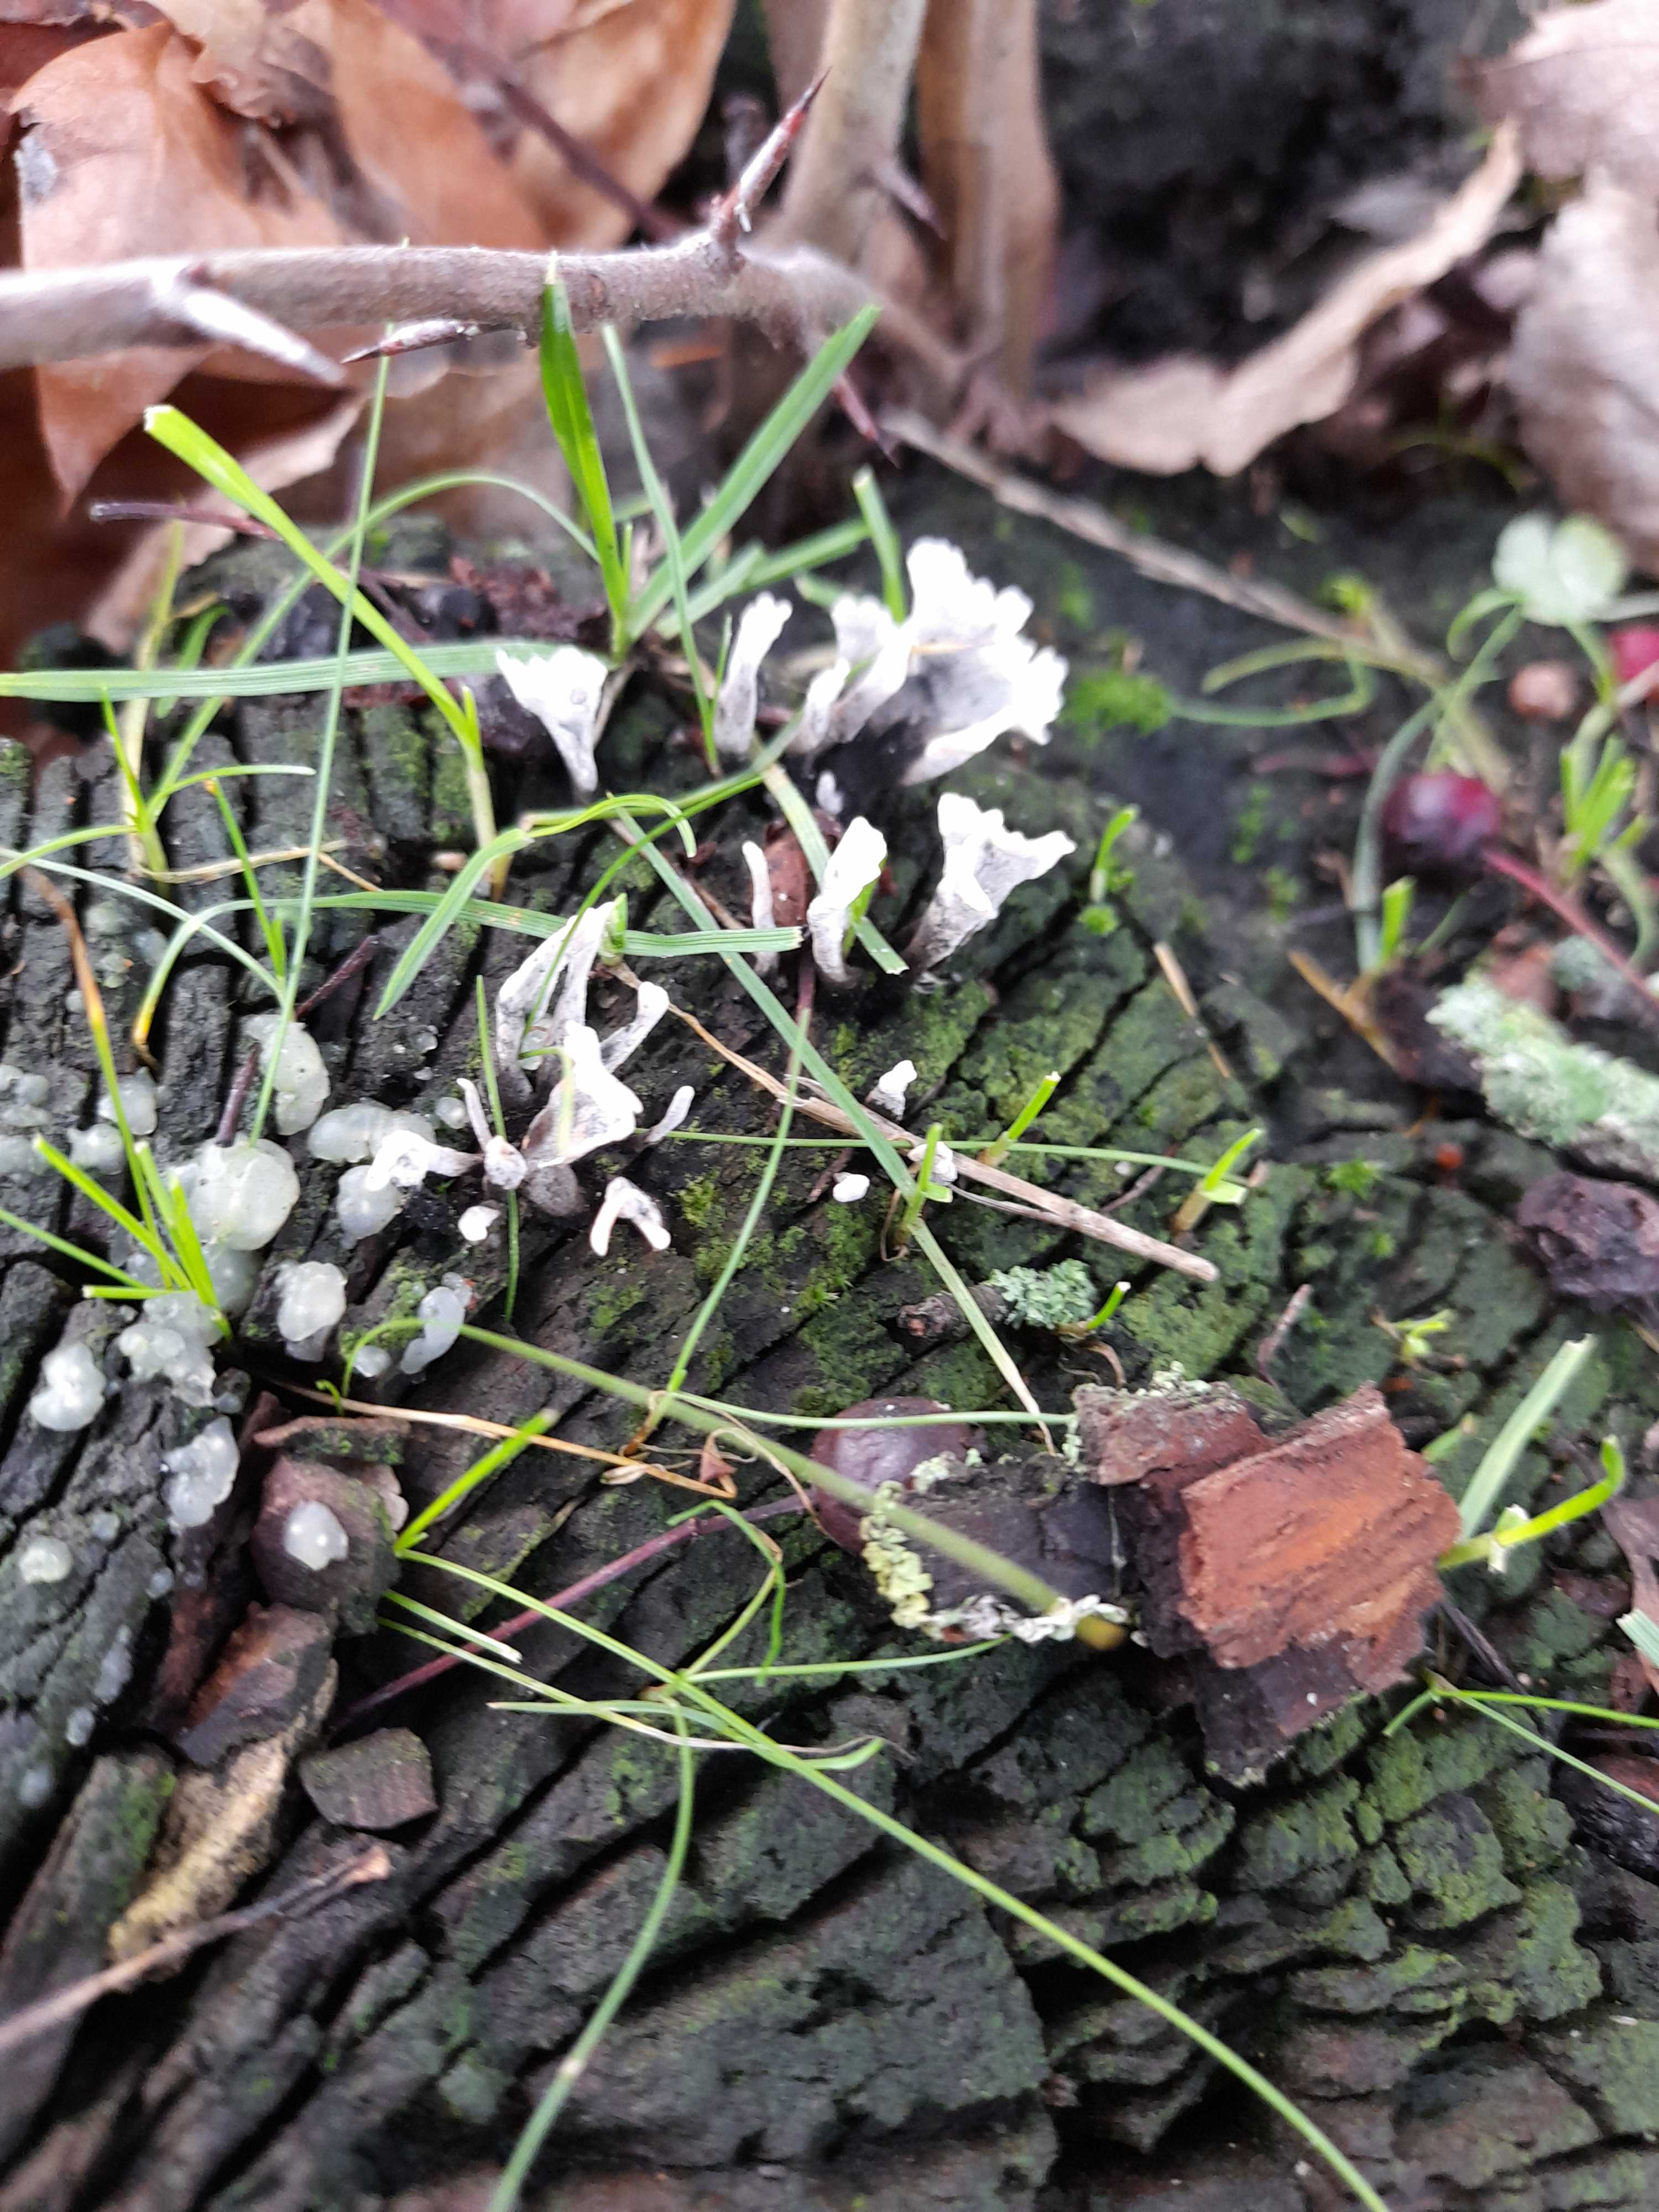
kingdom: Fungi
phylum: Ascomycota
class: Sordariomycetes
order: Xylariales
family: Xylariaceae
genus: Xylaria
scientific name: Xylaria hypoxylon
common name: grenet stødsvamp
